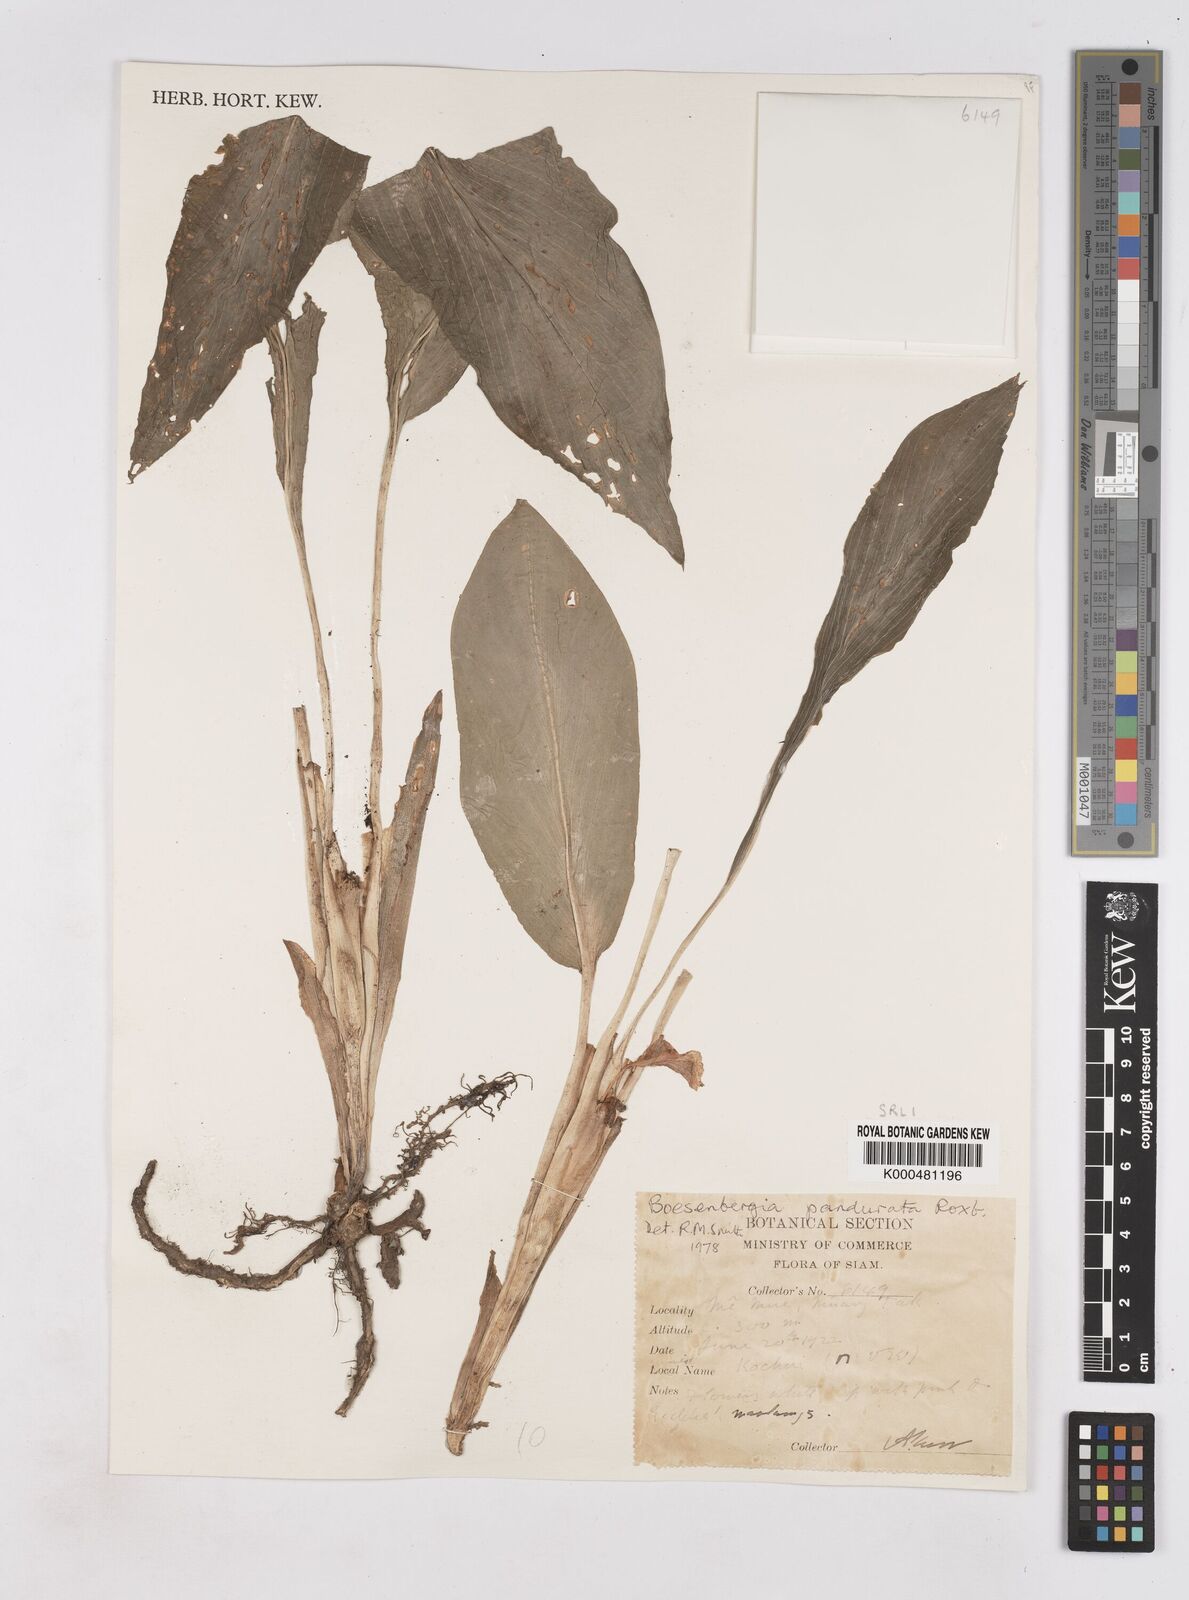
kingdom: Plantae
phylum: Tracheophyta
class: Liliopsida
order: Zingiberales
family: Zingiberaceae
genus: Boesenbergia
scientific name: Boesenbergia rotunda
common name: Chinese ginger
